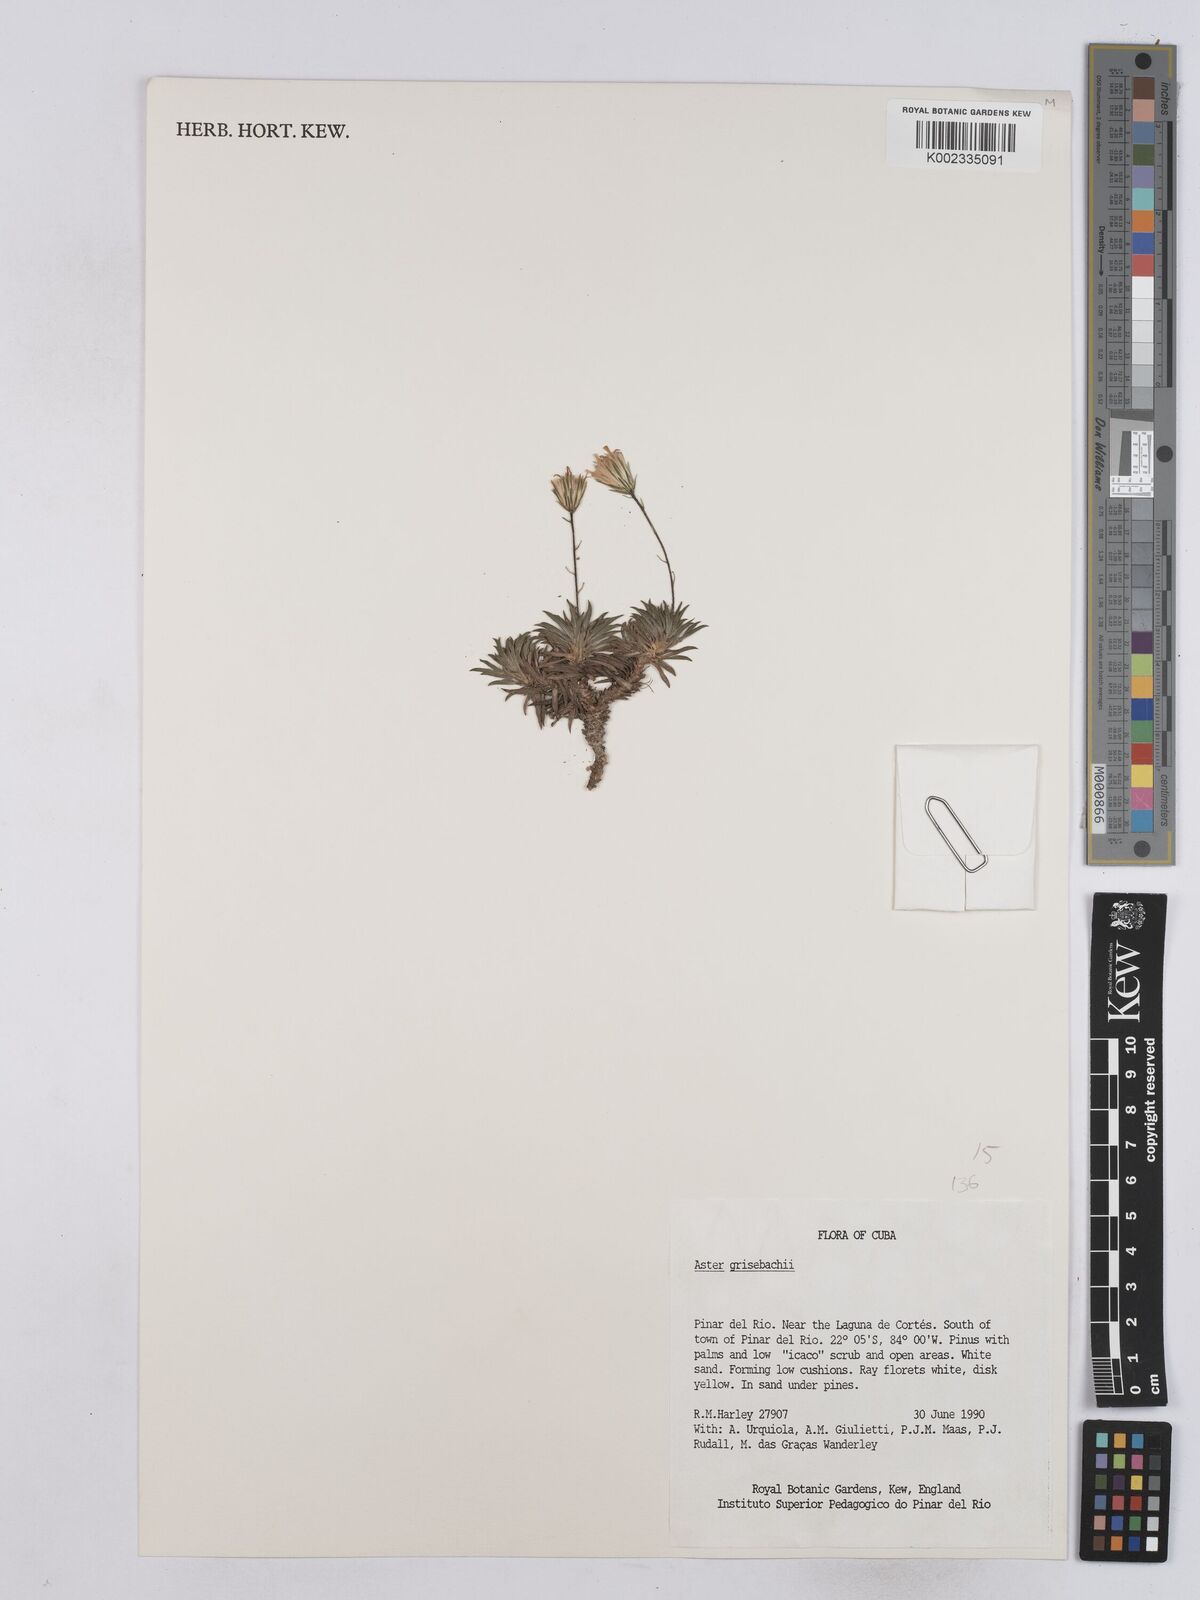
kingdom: Plantae
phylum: Tracheophyta
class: Magnoliopsida
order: Asterales
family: Asteraceae
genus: Neja
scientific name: Neja marginata
